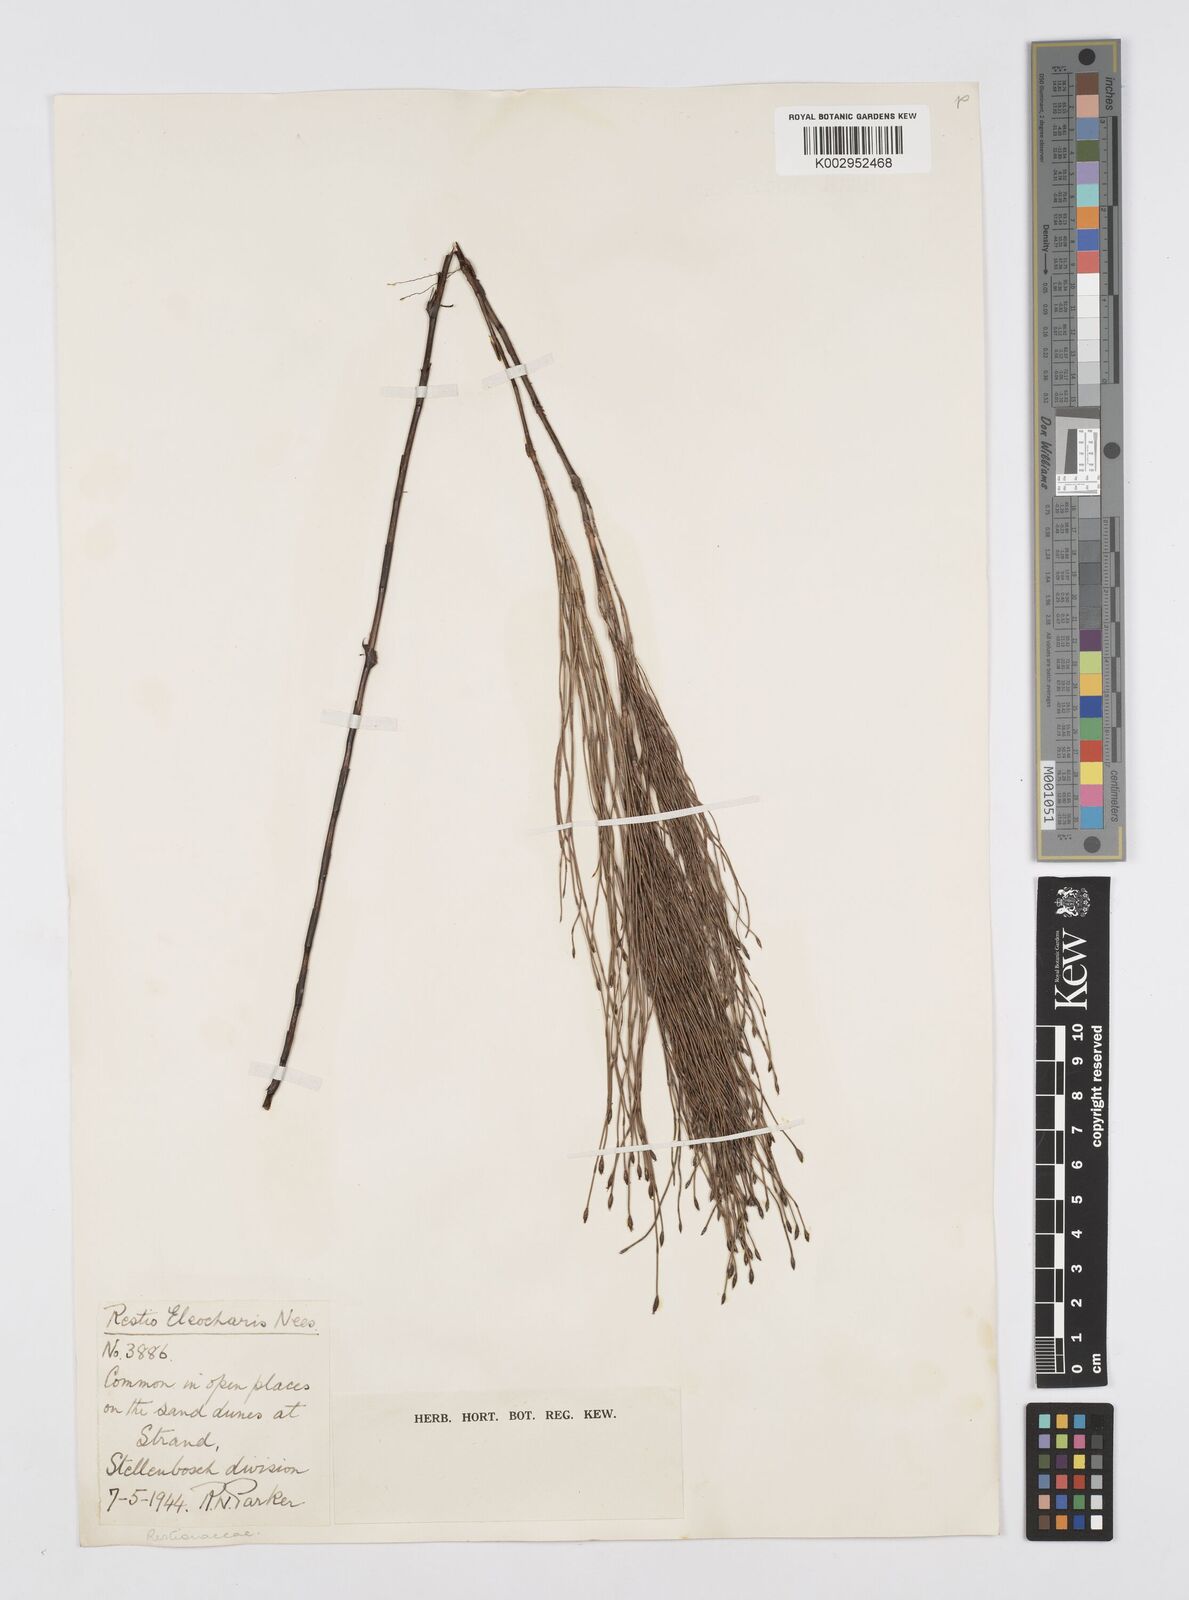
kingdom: Plantae
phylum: Tracheophyta
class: Liliopsida
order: Poales
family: Restionaceae
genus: Restio
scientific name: Restio eleocharis
